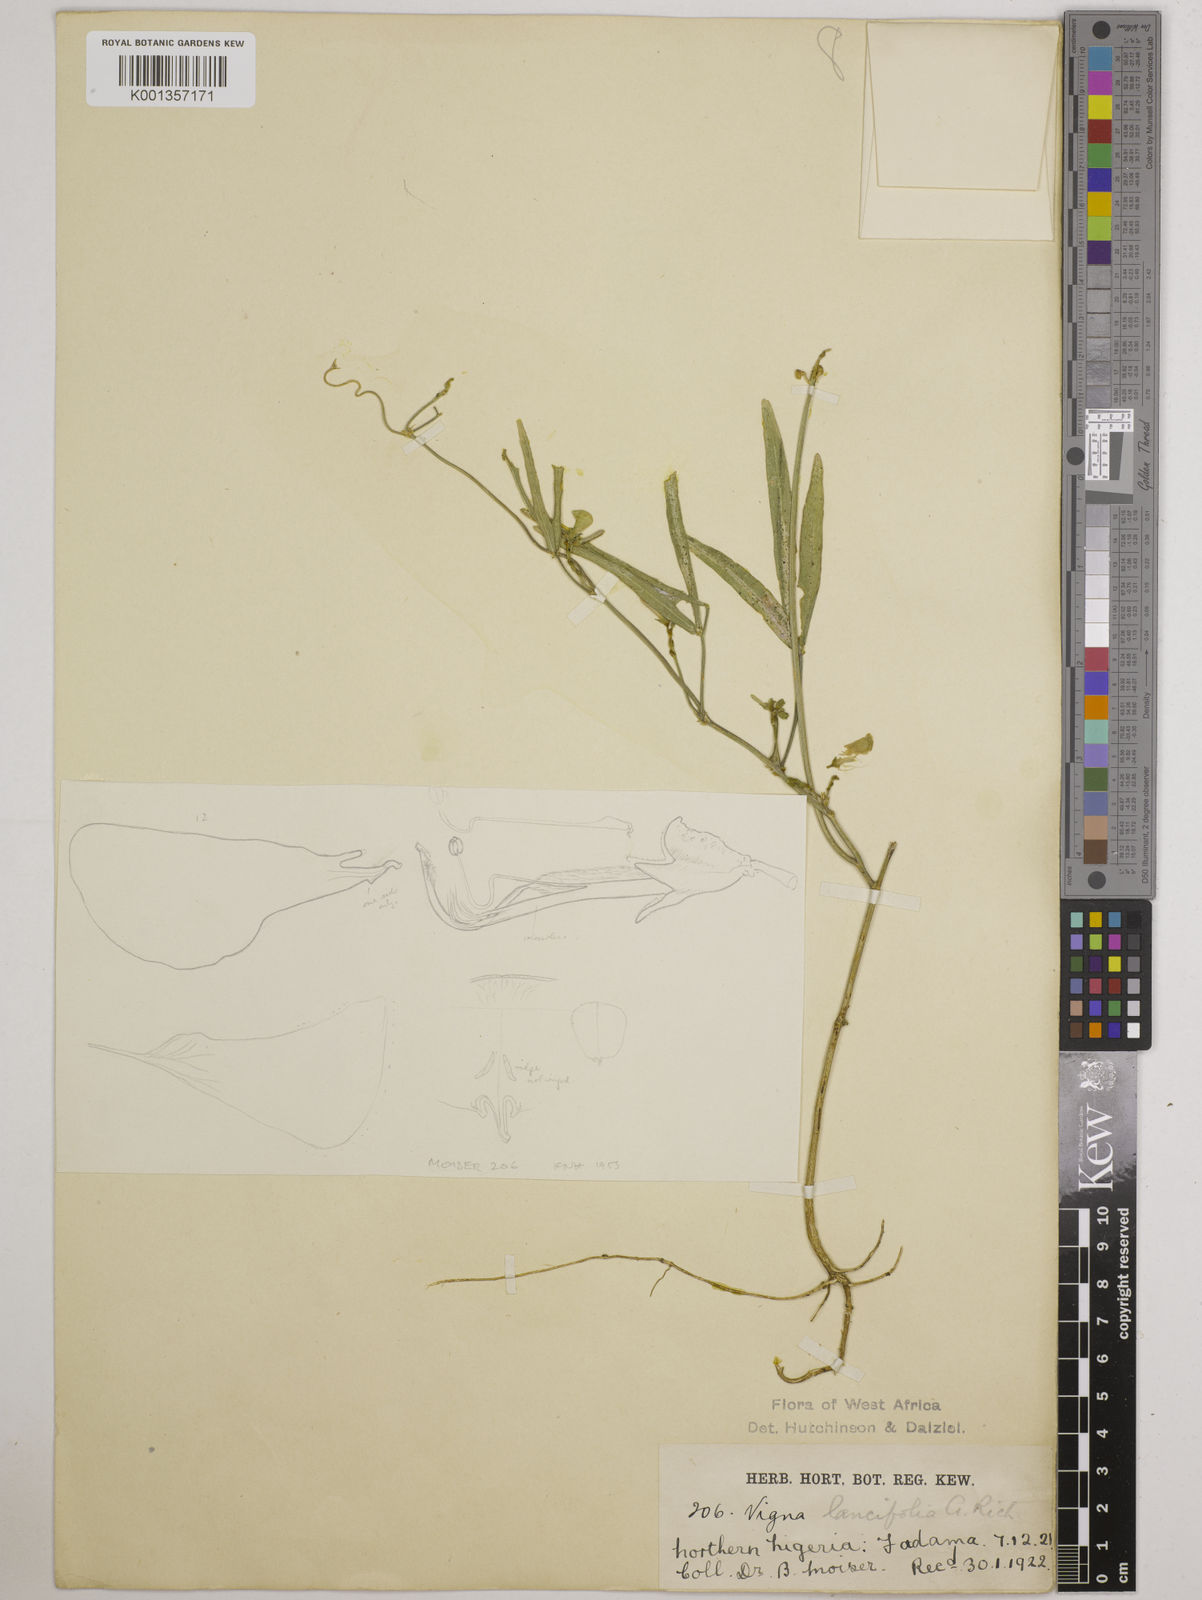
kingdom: Plantae
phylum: Tracheophyta
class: Magnoliopsida
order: Fabales
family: Fabaceae
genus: Vigna
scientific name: Vigna oblongifolia
